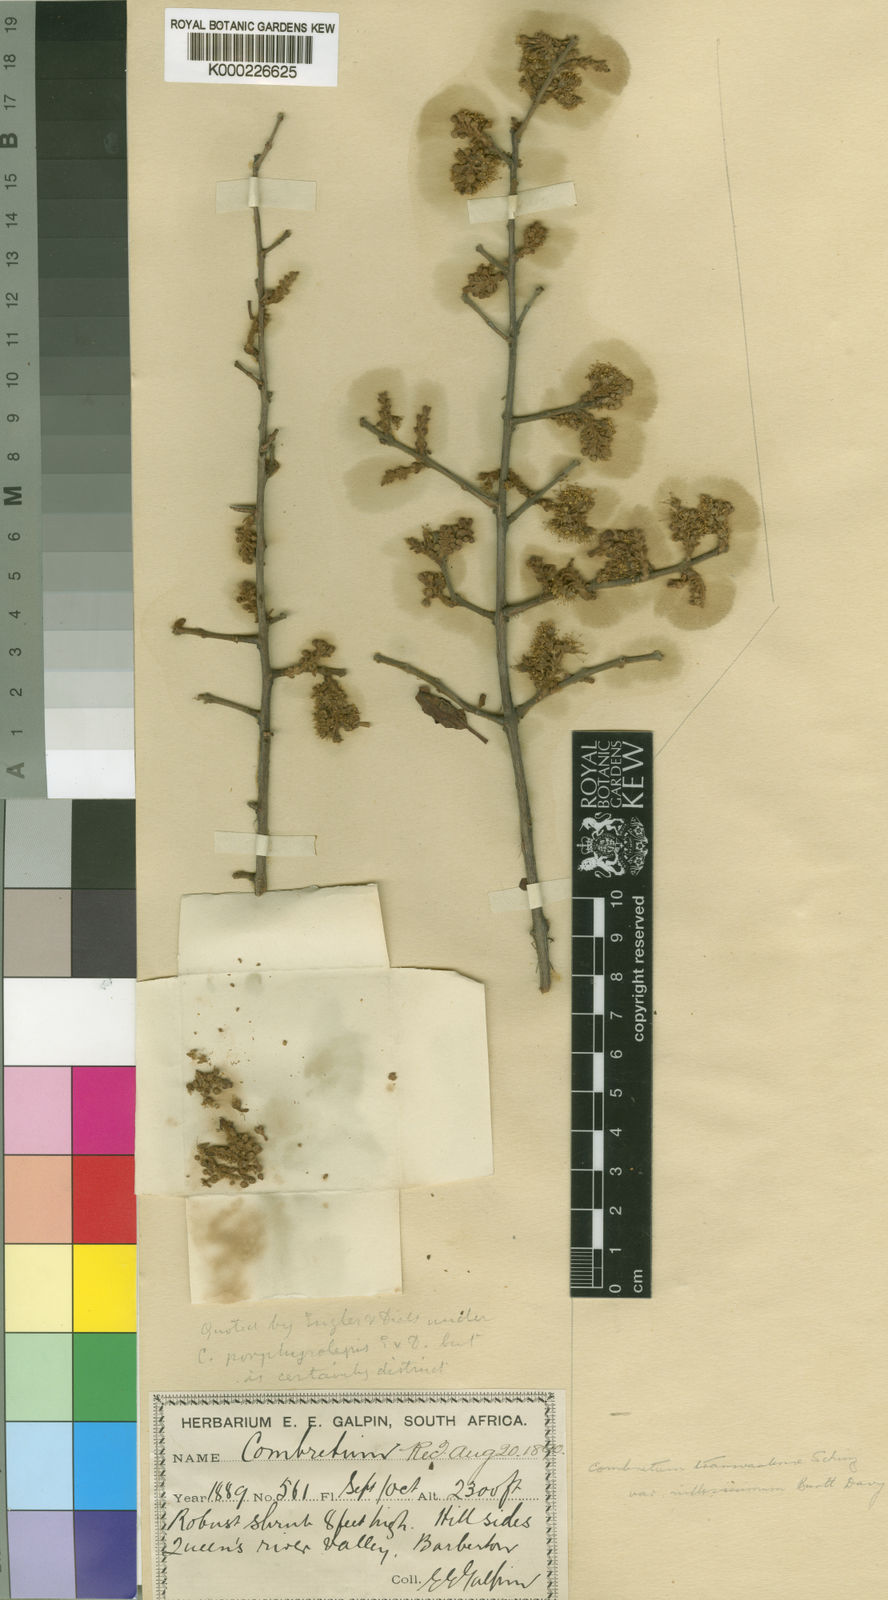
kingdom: Plantae
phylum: Tracheophyta
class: Magnoliopsida
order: Myrtales
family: Combretaceae
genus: Combretum
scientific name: Combretum hereroense
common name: Russet bushwillow
